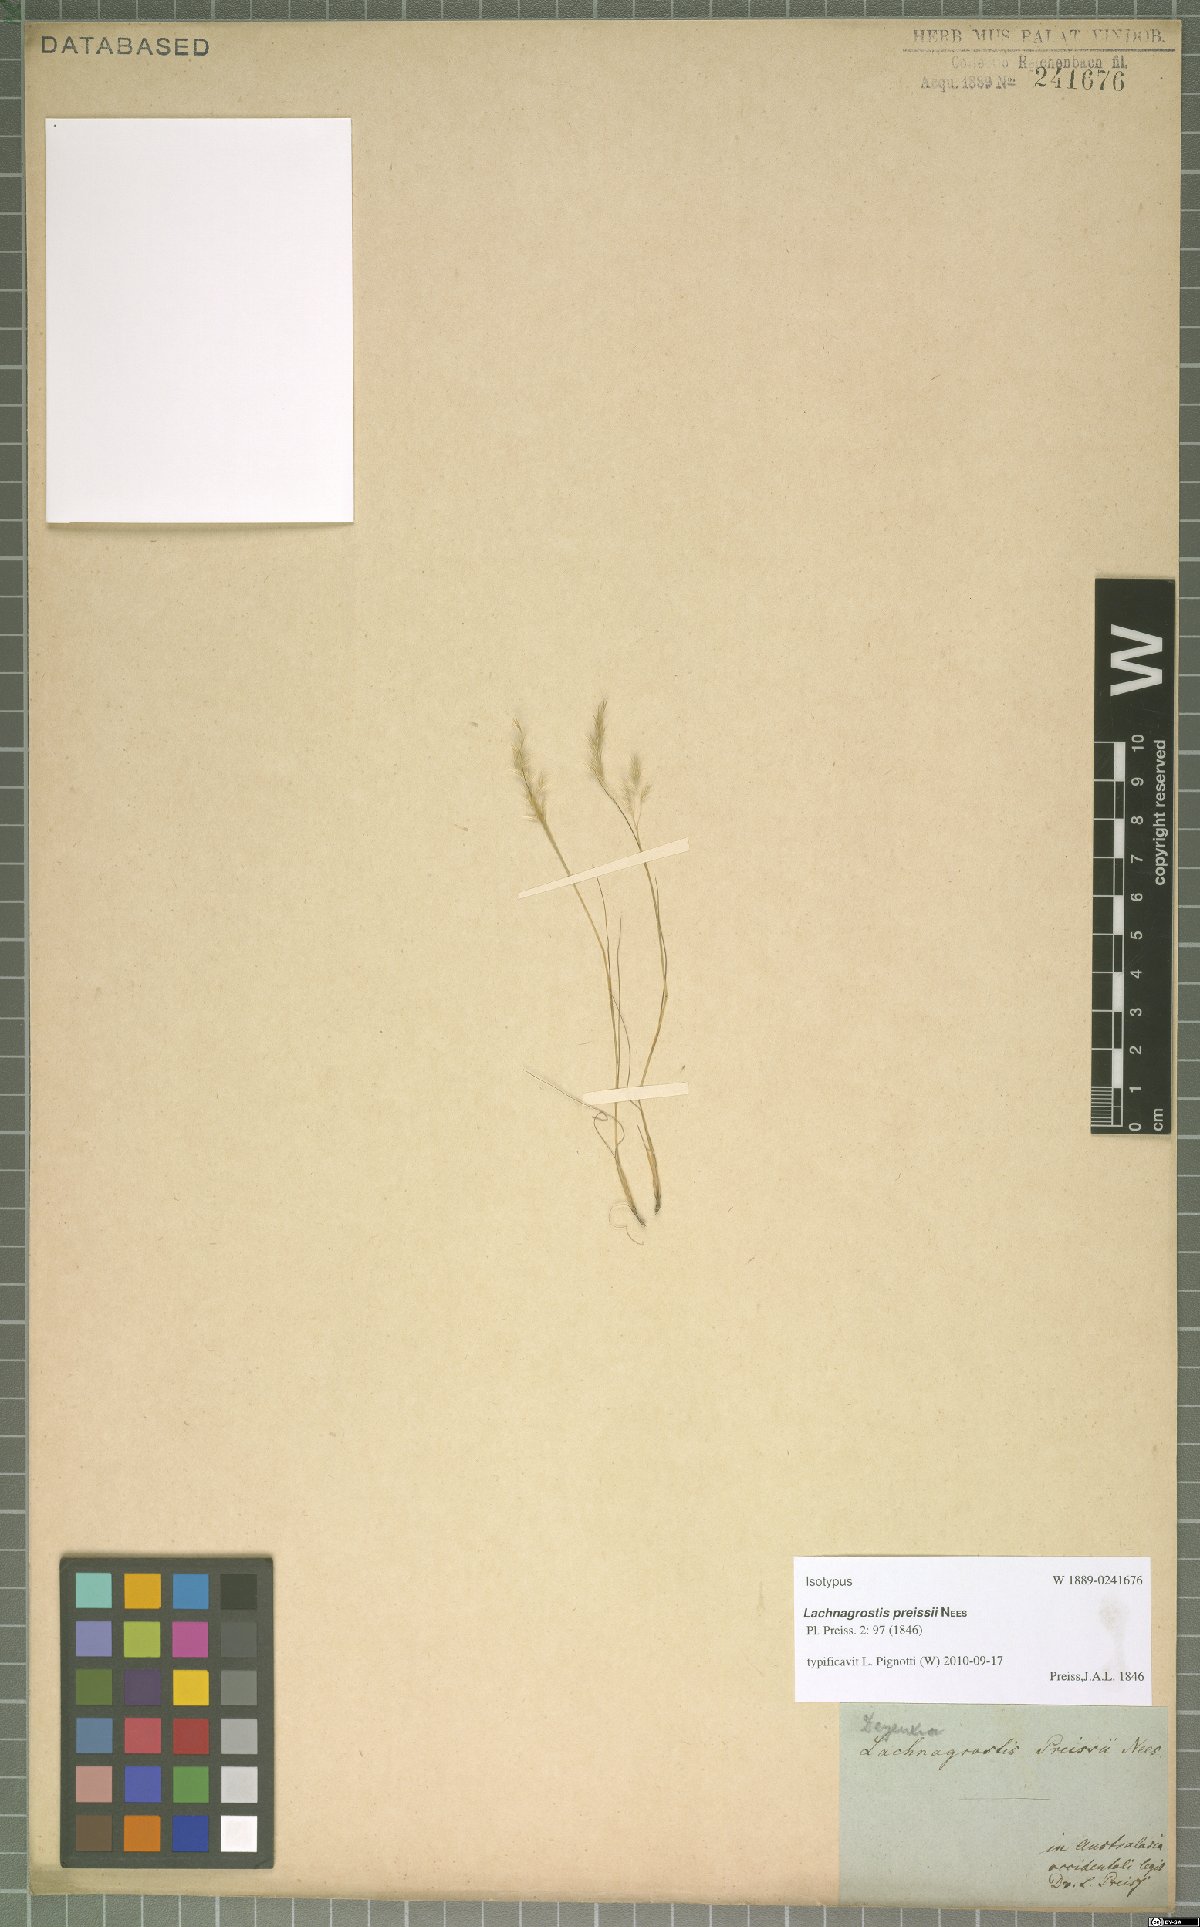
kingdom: Plantae
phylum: Tracheophyta
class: Liliopsida
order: Poales
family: Poaceae
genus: Lachnagrostis
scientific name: Lachnagrostis preissii
